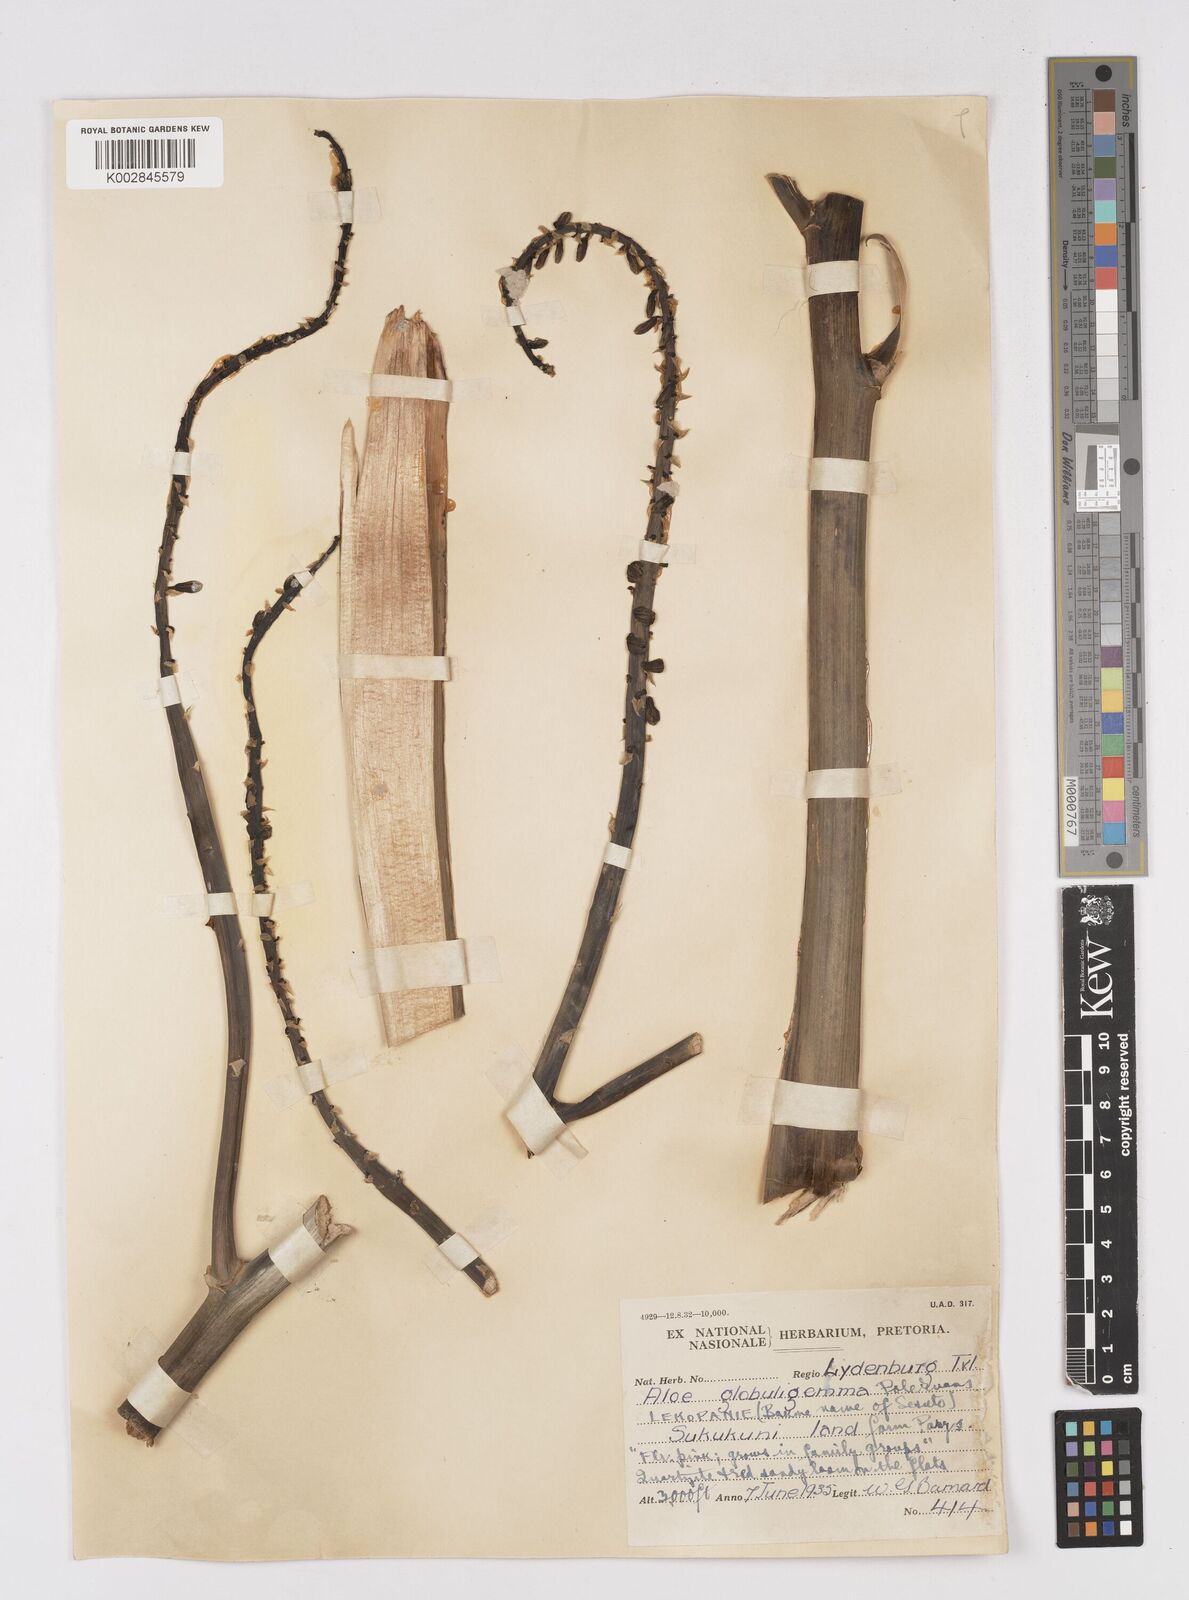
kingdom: Plantae
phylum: Tracheophyta
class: Liliopsida
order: Asparagales
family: Asphodelaceae
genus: Aloe
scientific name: Aloe globuligemma
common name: Witchdoctor's aloe
